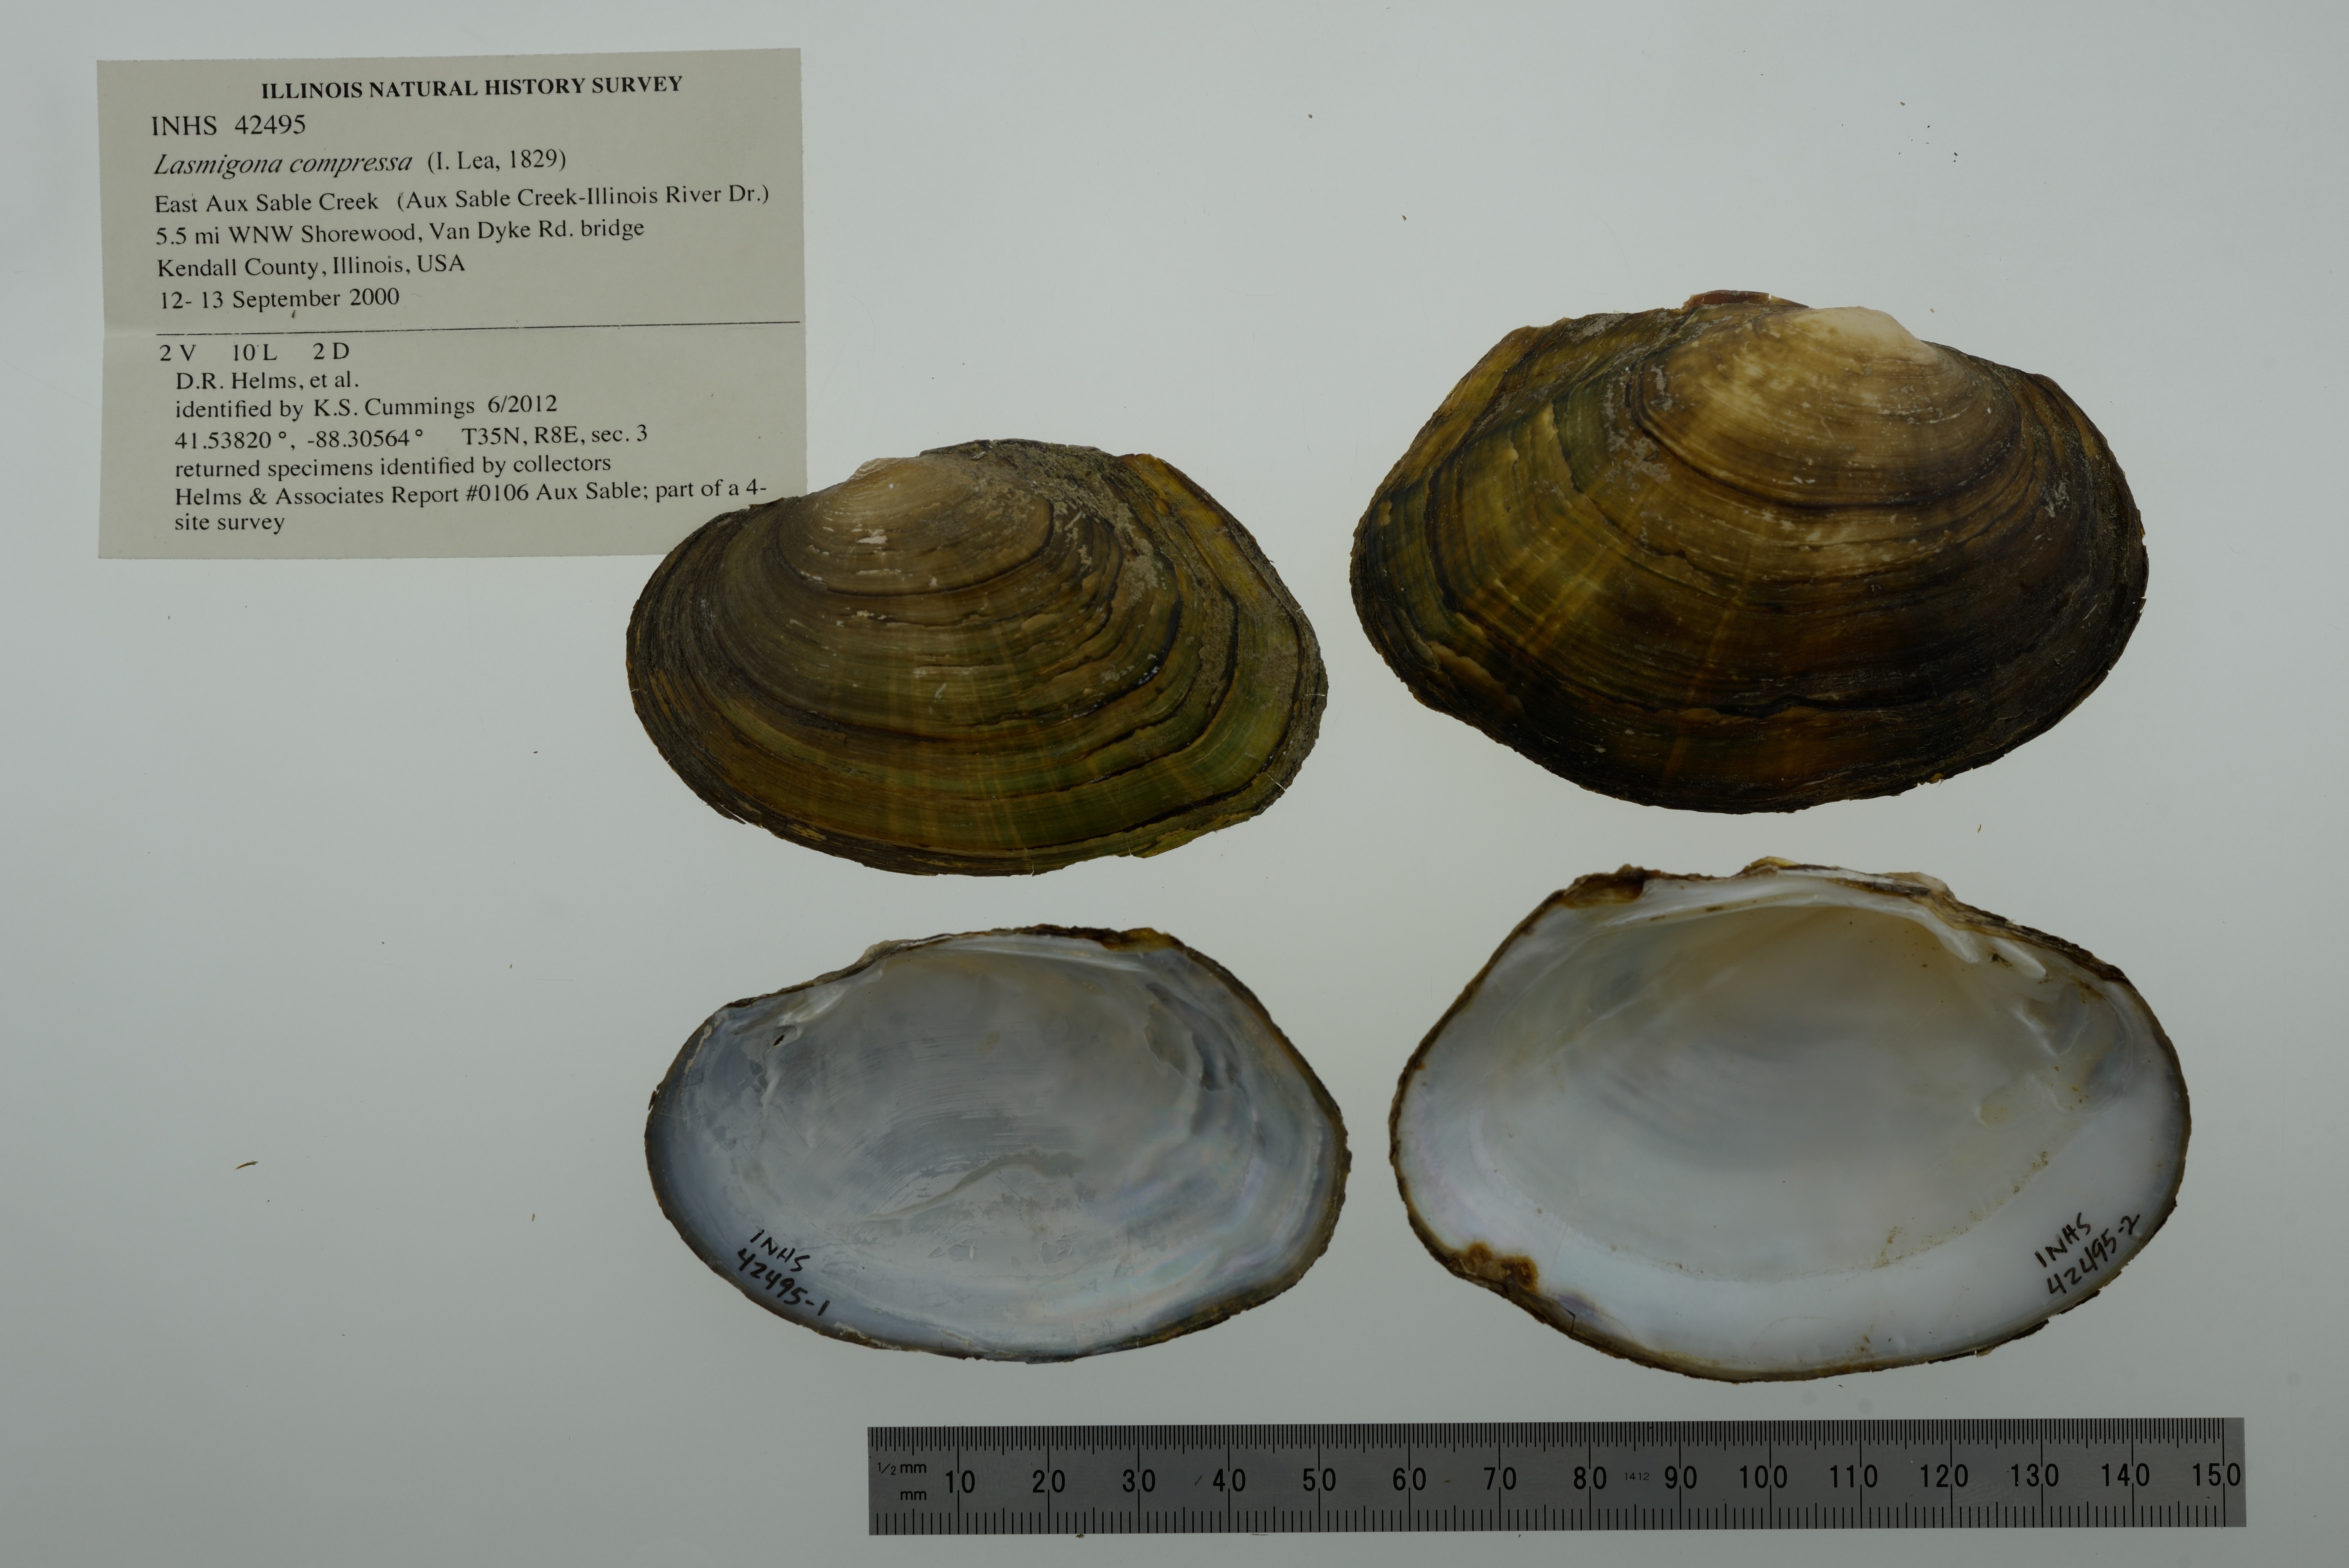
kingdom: Animalia
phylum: Mollusca
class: Bivalvia
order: Unionida
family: Unionidae
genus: Lasmigona
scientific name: Lasmigona compressa
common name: Creek heelsplitter
